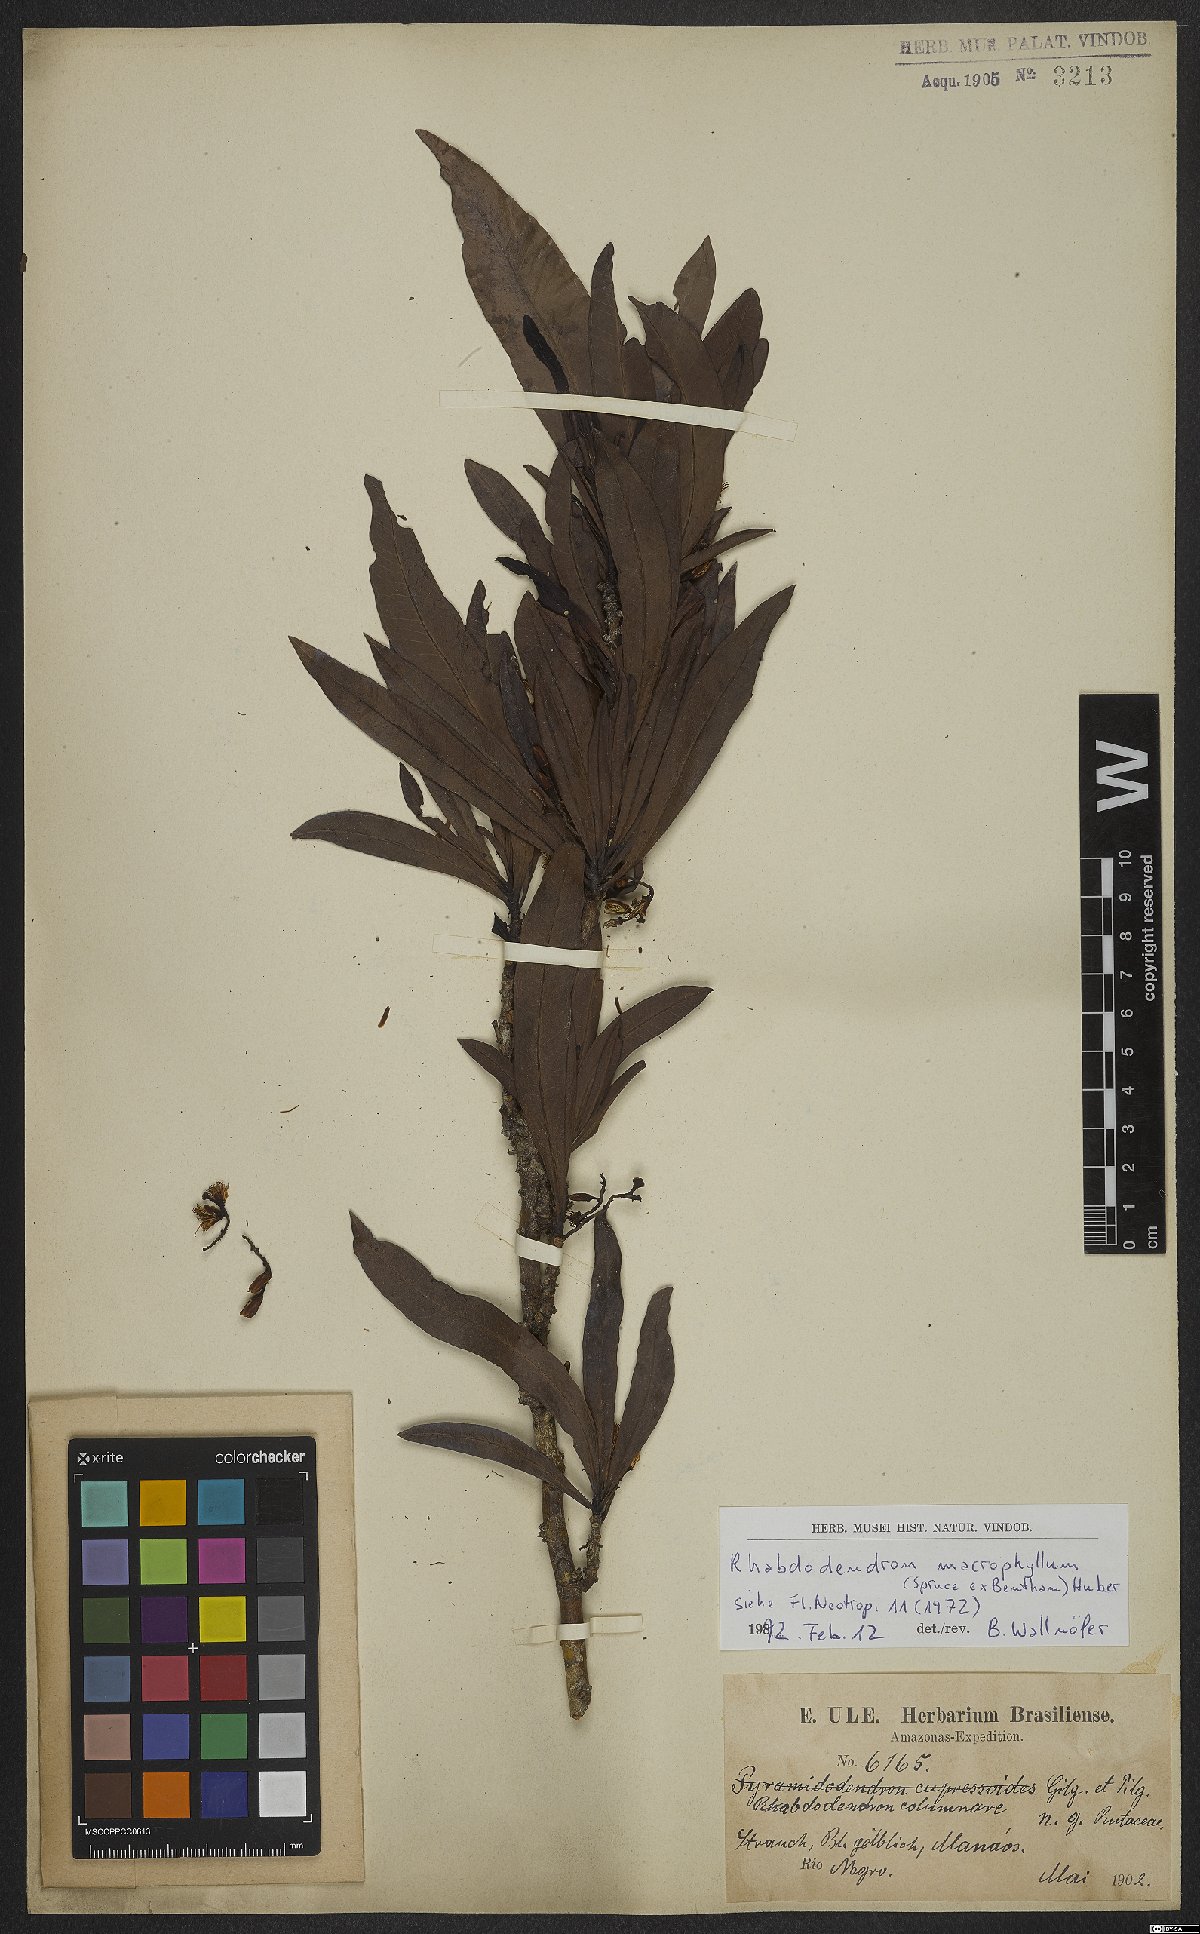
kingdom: Plantae
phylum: Tracheophyta
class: Magnoliopsida
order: Caryophyllales
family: Rhabdodendraceae
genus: Rhabdodendron
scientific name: Rhabdodendron macrophyllum
